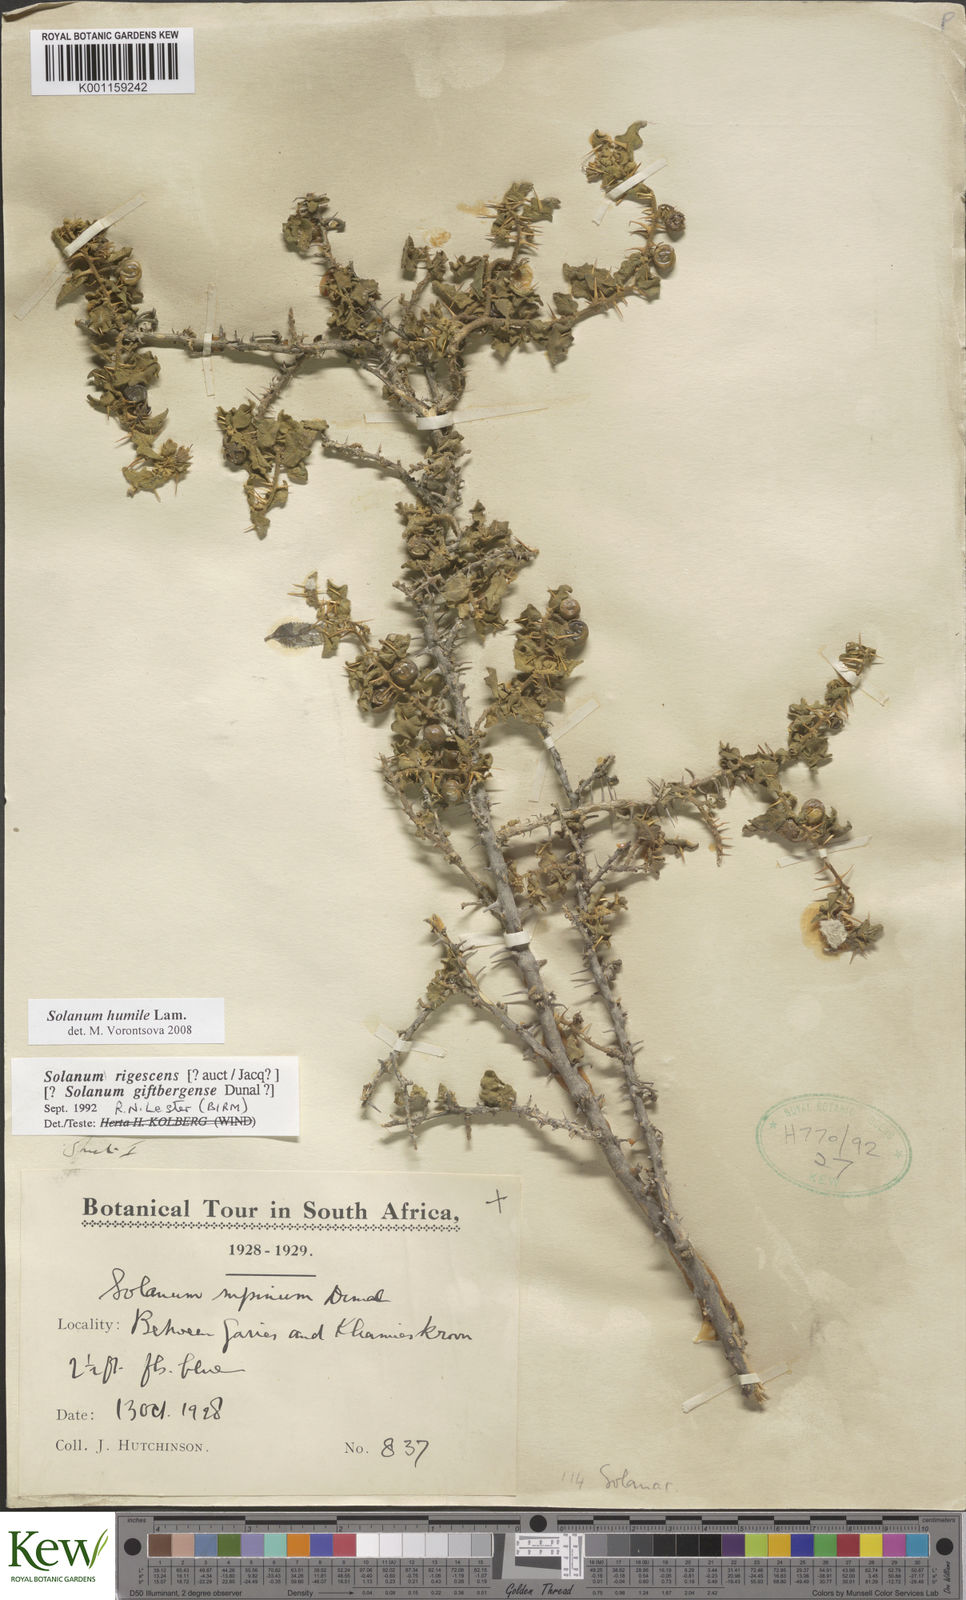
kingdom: Plantae
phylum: Tracheophyta
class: Magnoliopsida
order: Solanales
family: Solanaceae
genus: Solanum
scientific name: Solanum humile
